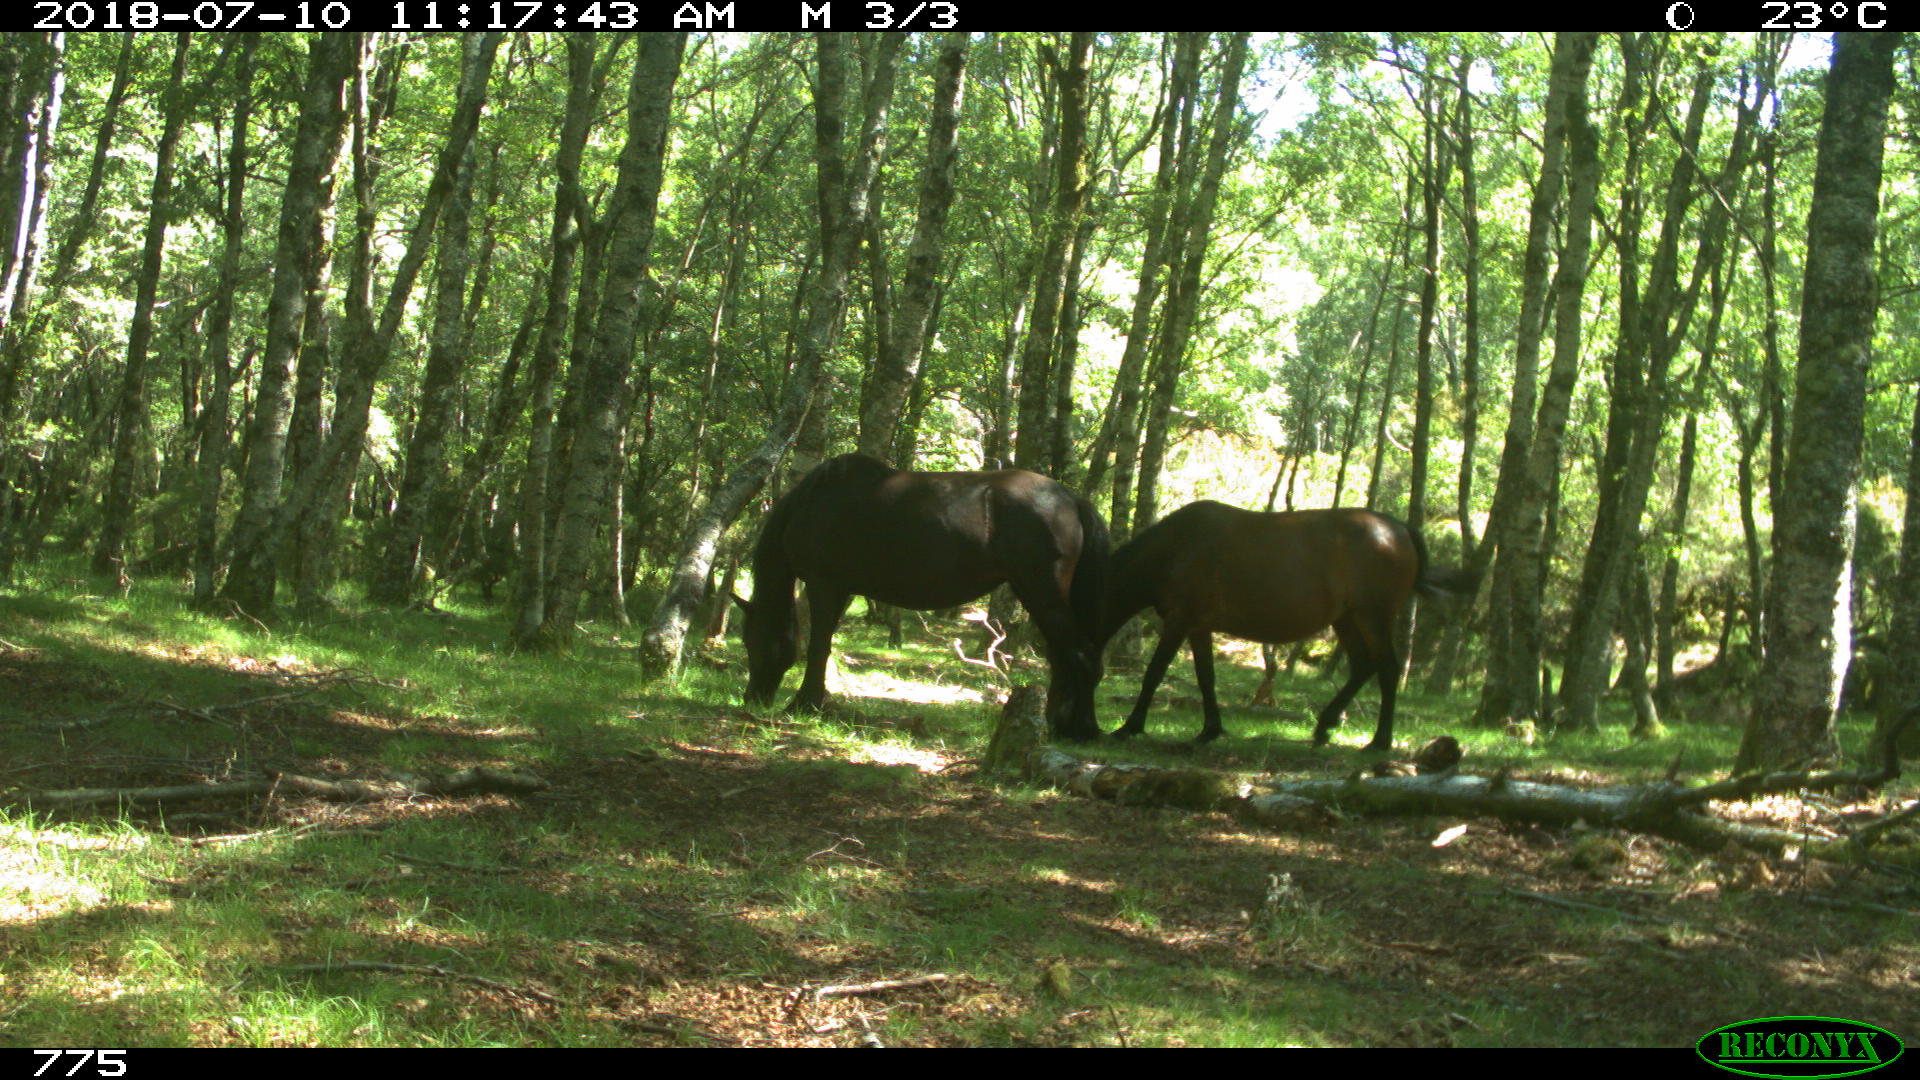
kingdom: Animalia
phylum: Chordata
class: Mammalia
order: Perissodactyla
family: Equidae
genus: Equus
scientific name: Equus caballus
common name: Horse
